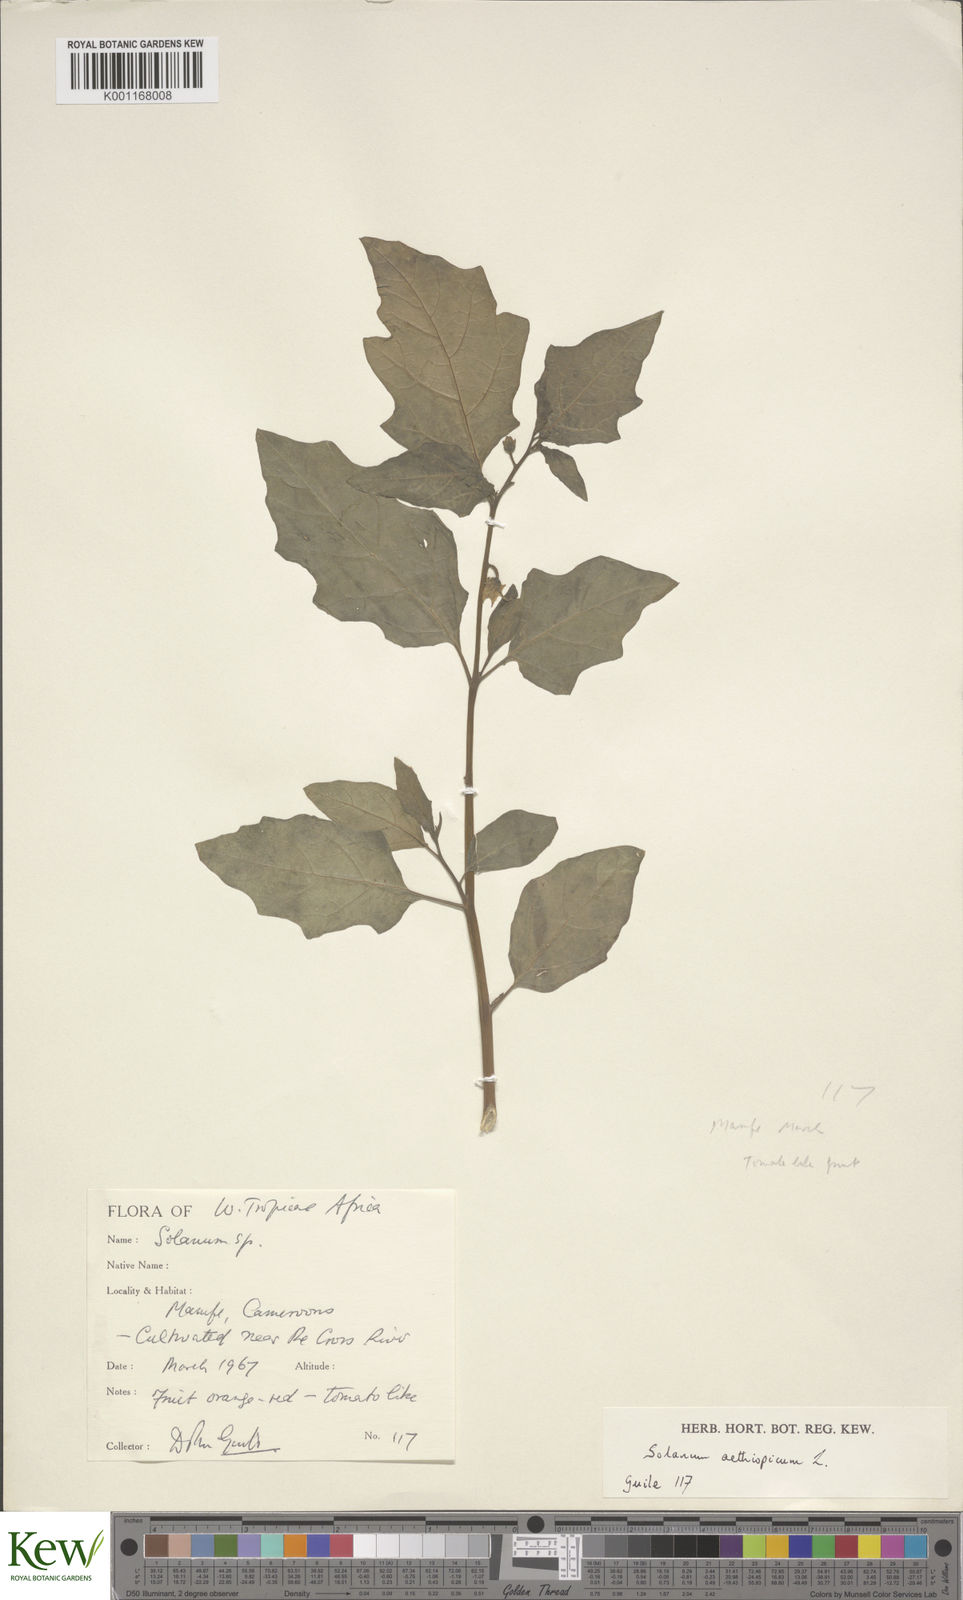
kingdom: Plantae
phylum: Tracheophyta
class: Magnoliopsida
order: Solanales
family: Solanaceae
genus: Solanum
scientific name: Solanum aethiopicum
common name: Gilo
